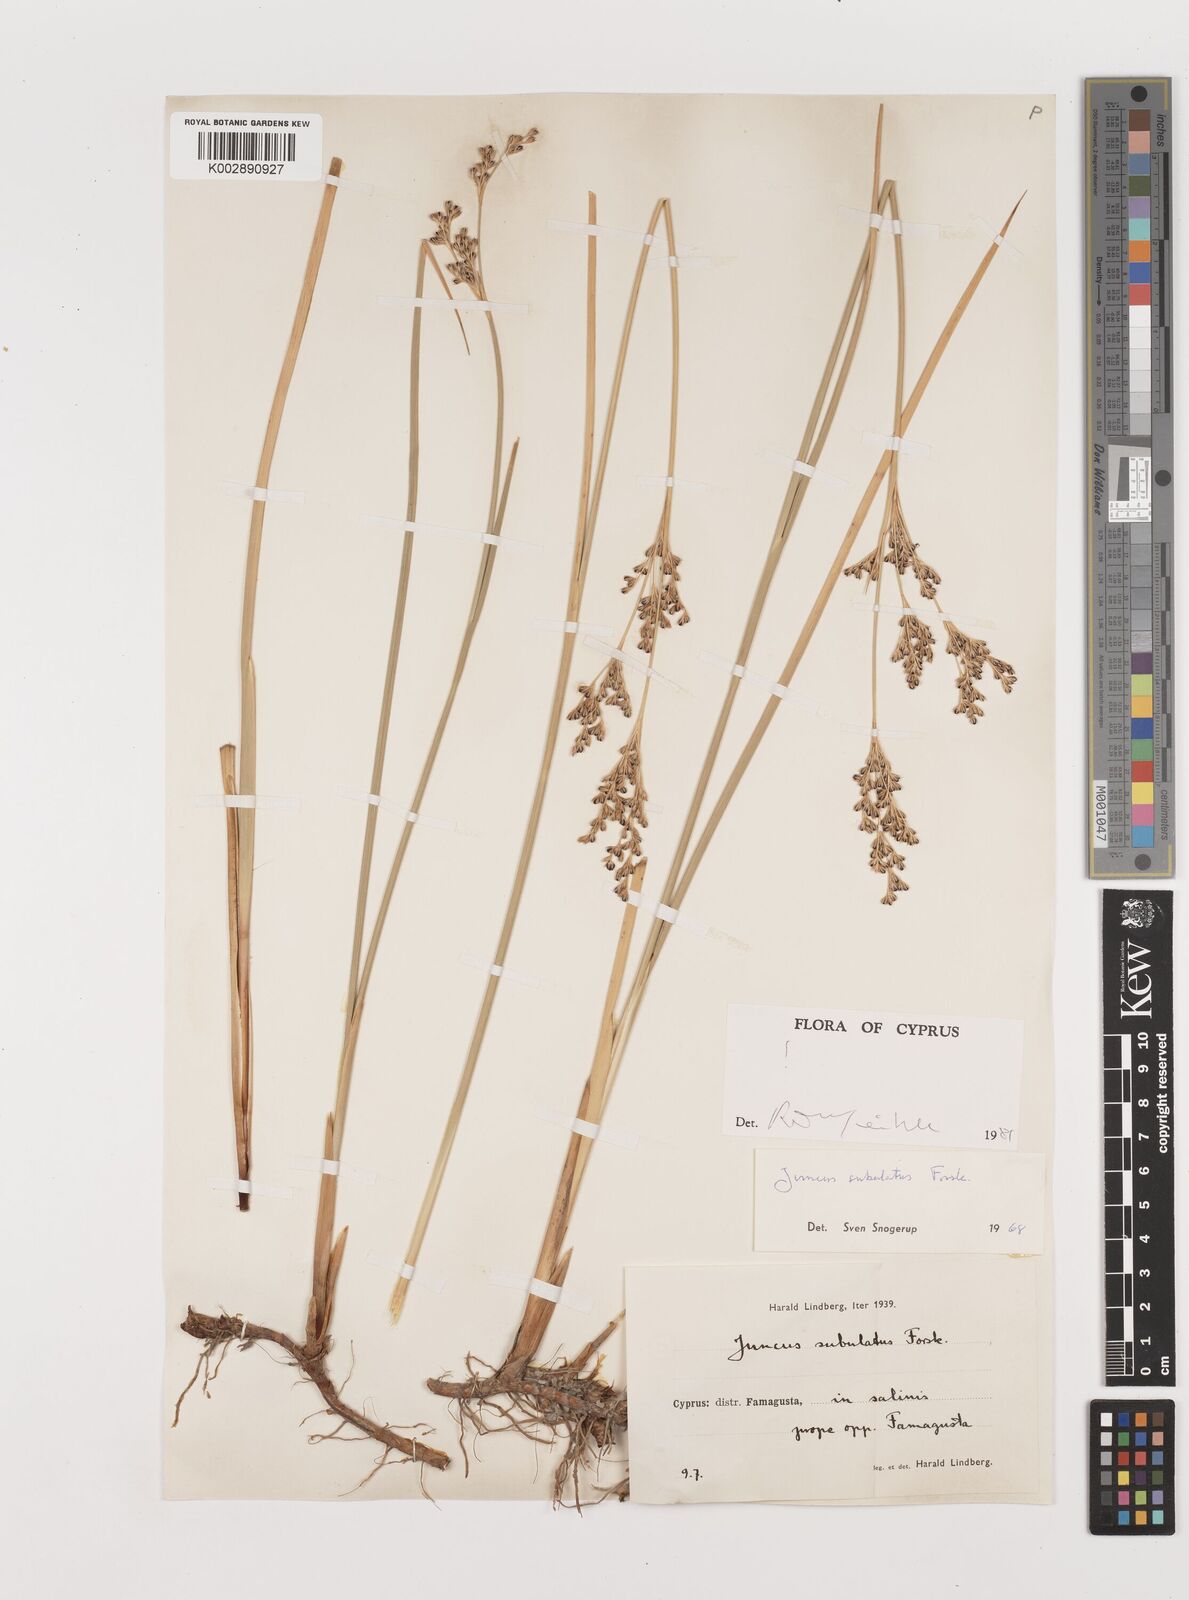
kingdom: Plantae
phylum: Tracheophyta
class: Liliopsida
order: Poales
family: Juncaceae
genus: Juncus
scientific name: Juncus subulatus
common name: Somerset rush
